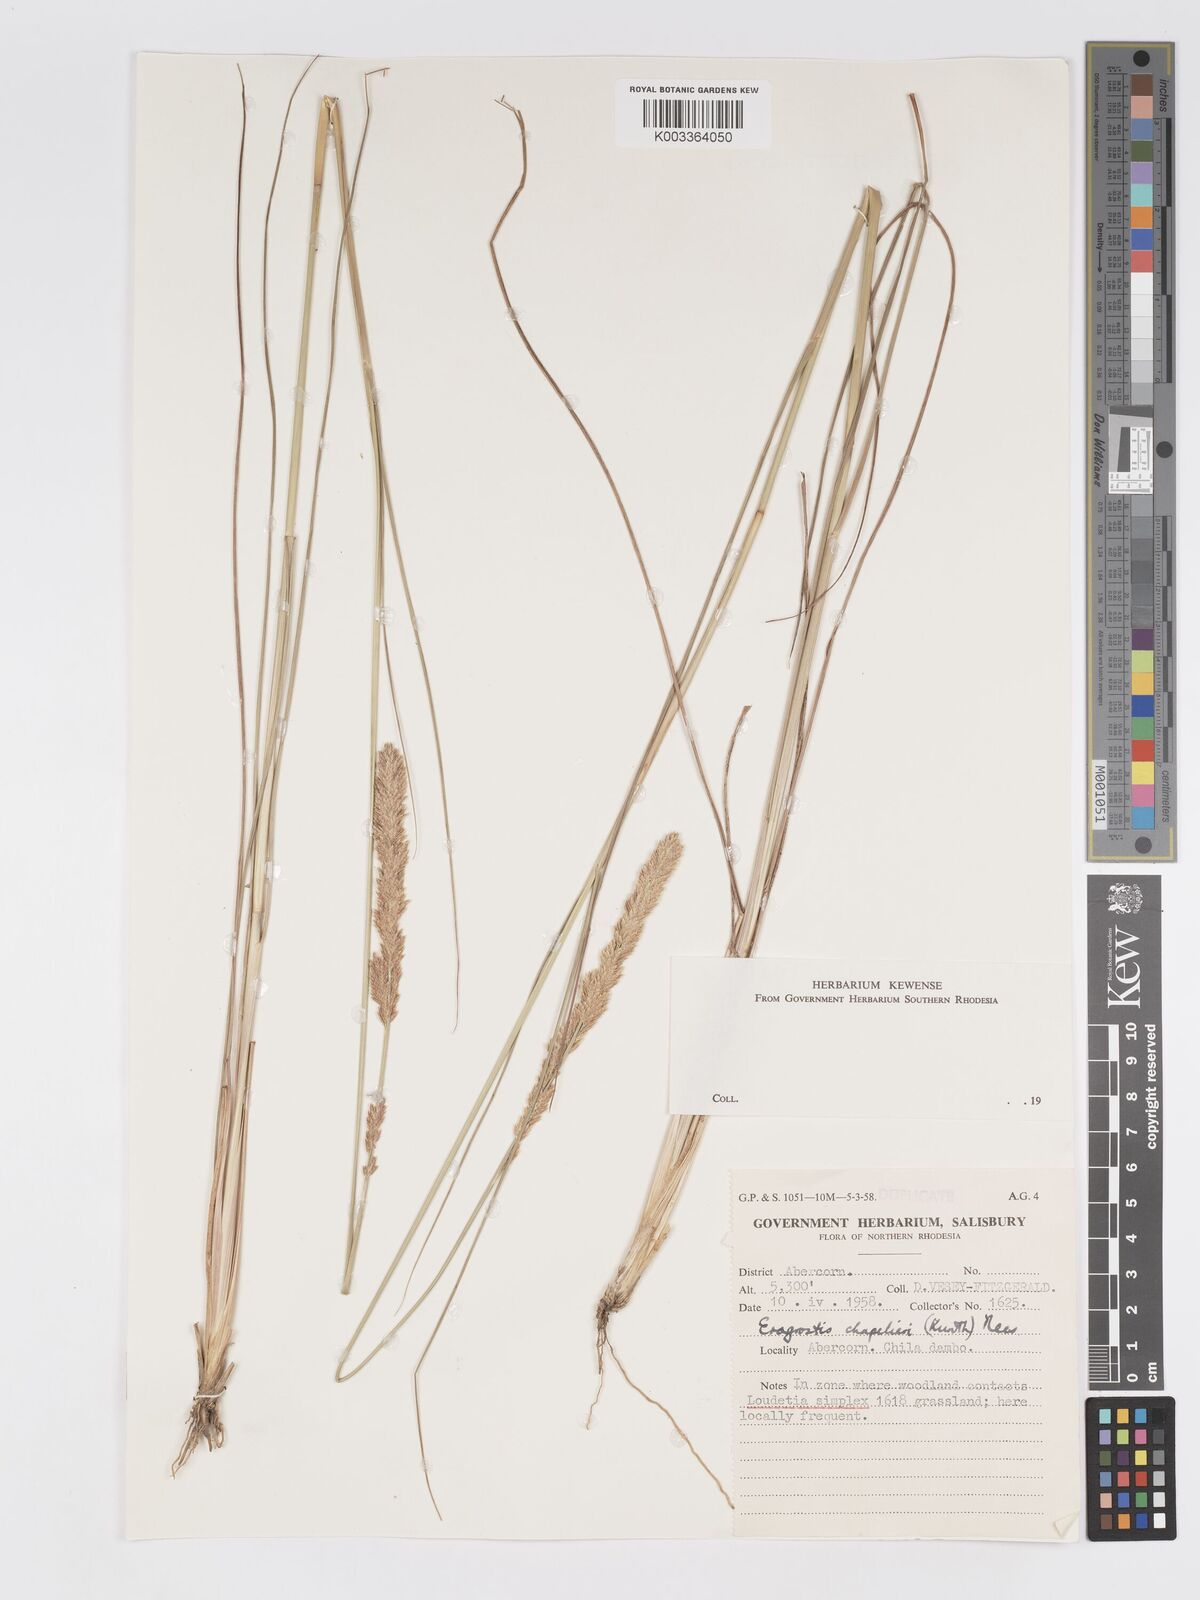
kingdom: Plantae
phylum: Tracheophyta
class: Liliopsida
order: Poales
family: Poaceae
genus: Eragrostis
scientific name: Eragrostis chapelieri
